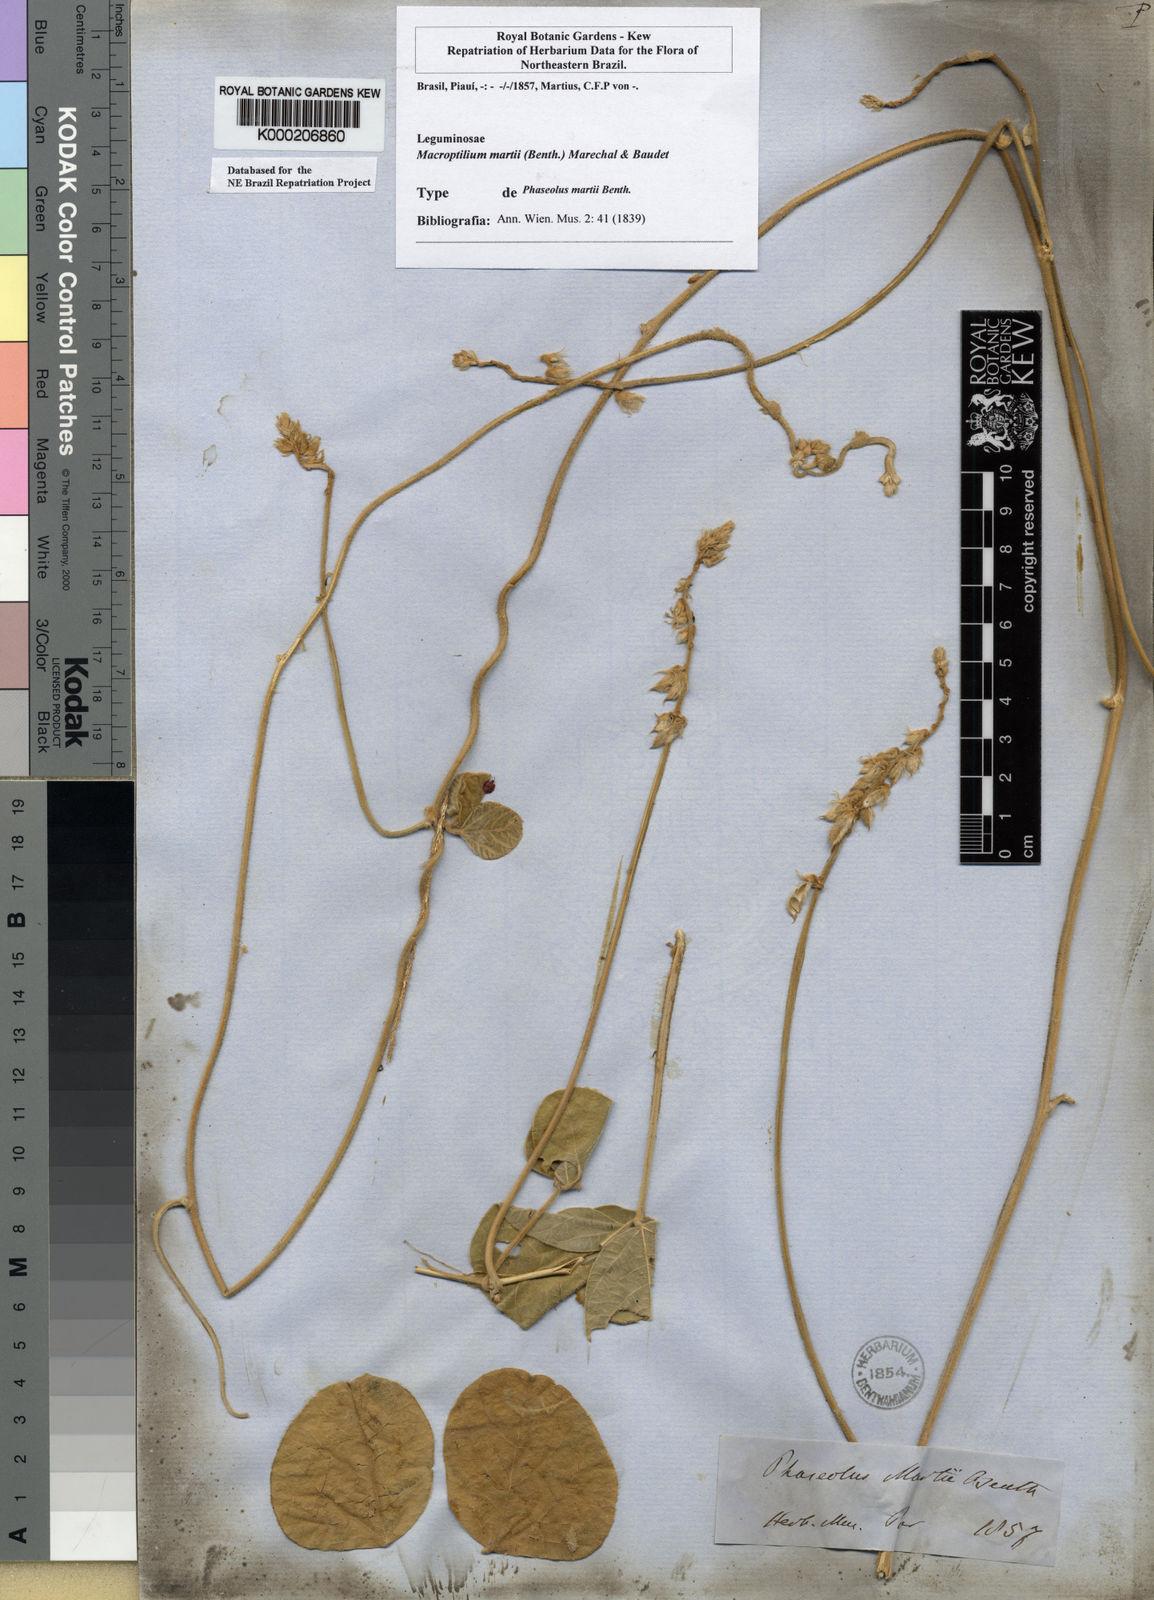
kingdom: Plantae
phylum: Tracheophyta
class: Magnoliopsida
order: Fabales
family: Fabaceae
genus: Macroptilium
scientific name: Macroptilium
